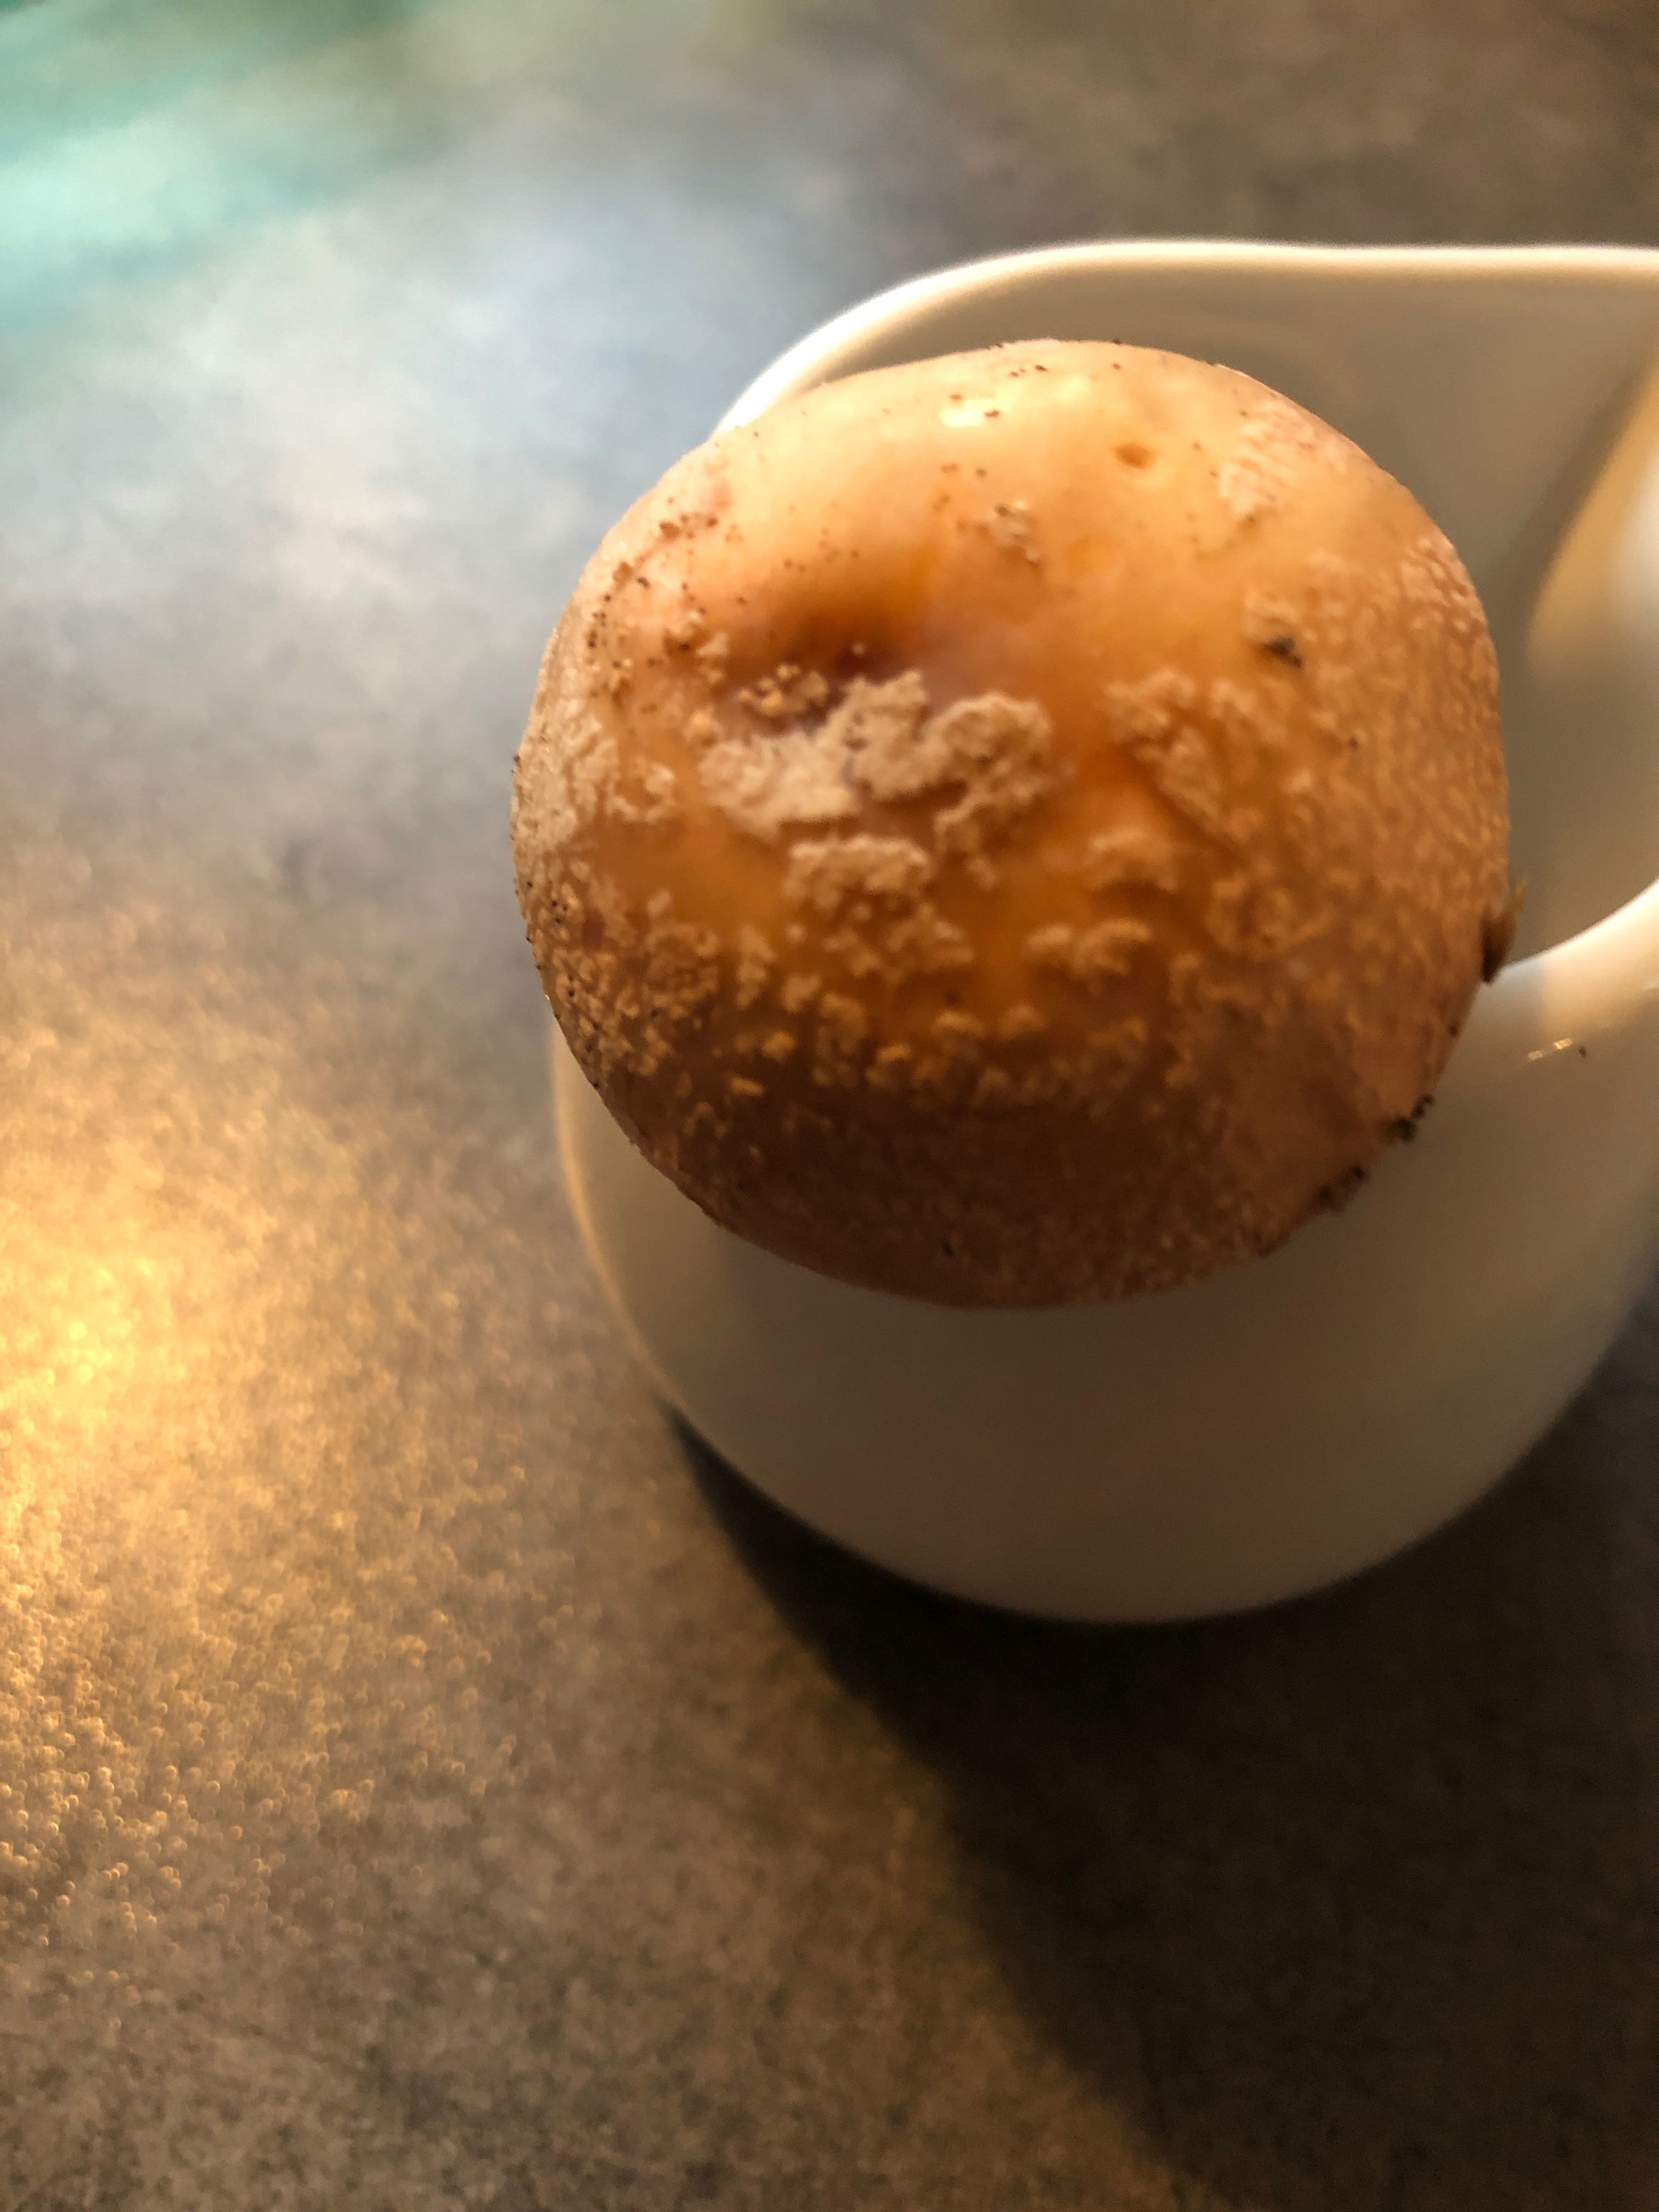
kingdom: Fungi
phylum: Basidiomycota
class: Agaricomycetes
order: Agaricales
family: Amanitaceae
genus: Amanita
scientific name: Amanita rubescens
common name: rødmende fluesvamp
